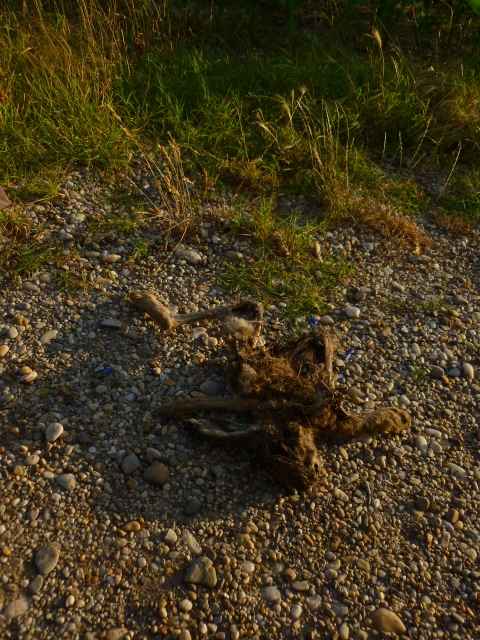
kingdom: Animalia
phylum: Chordata
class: Mammalia
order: Lagomorpha
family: Leporidae
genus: Lepus
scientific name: Lepus europaeus
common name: European hare
